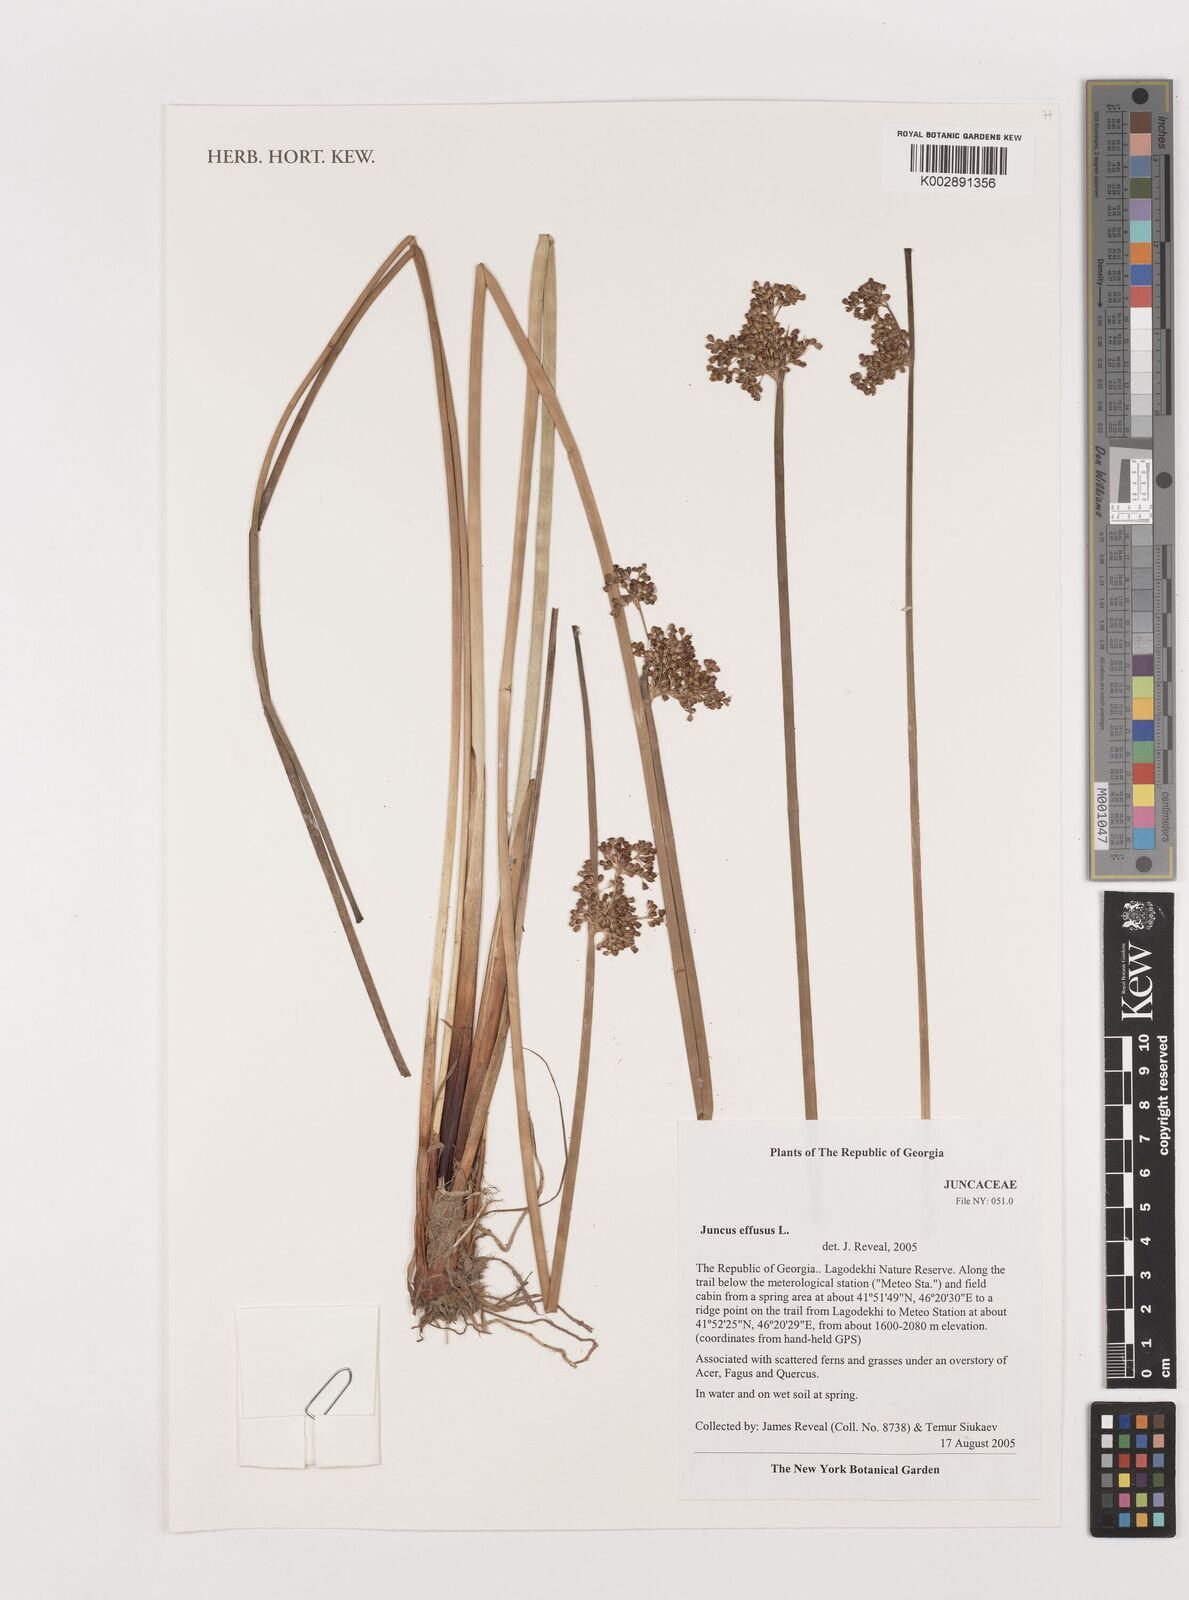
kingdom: Plantae
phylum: Tracheophyta
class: Liliopsida
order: Poales
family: Juncaceae
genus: Juncus
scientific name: Juncus effusus
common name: Soft rush
